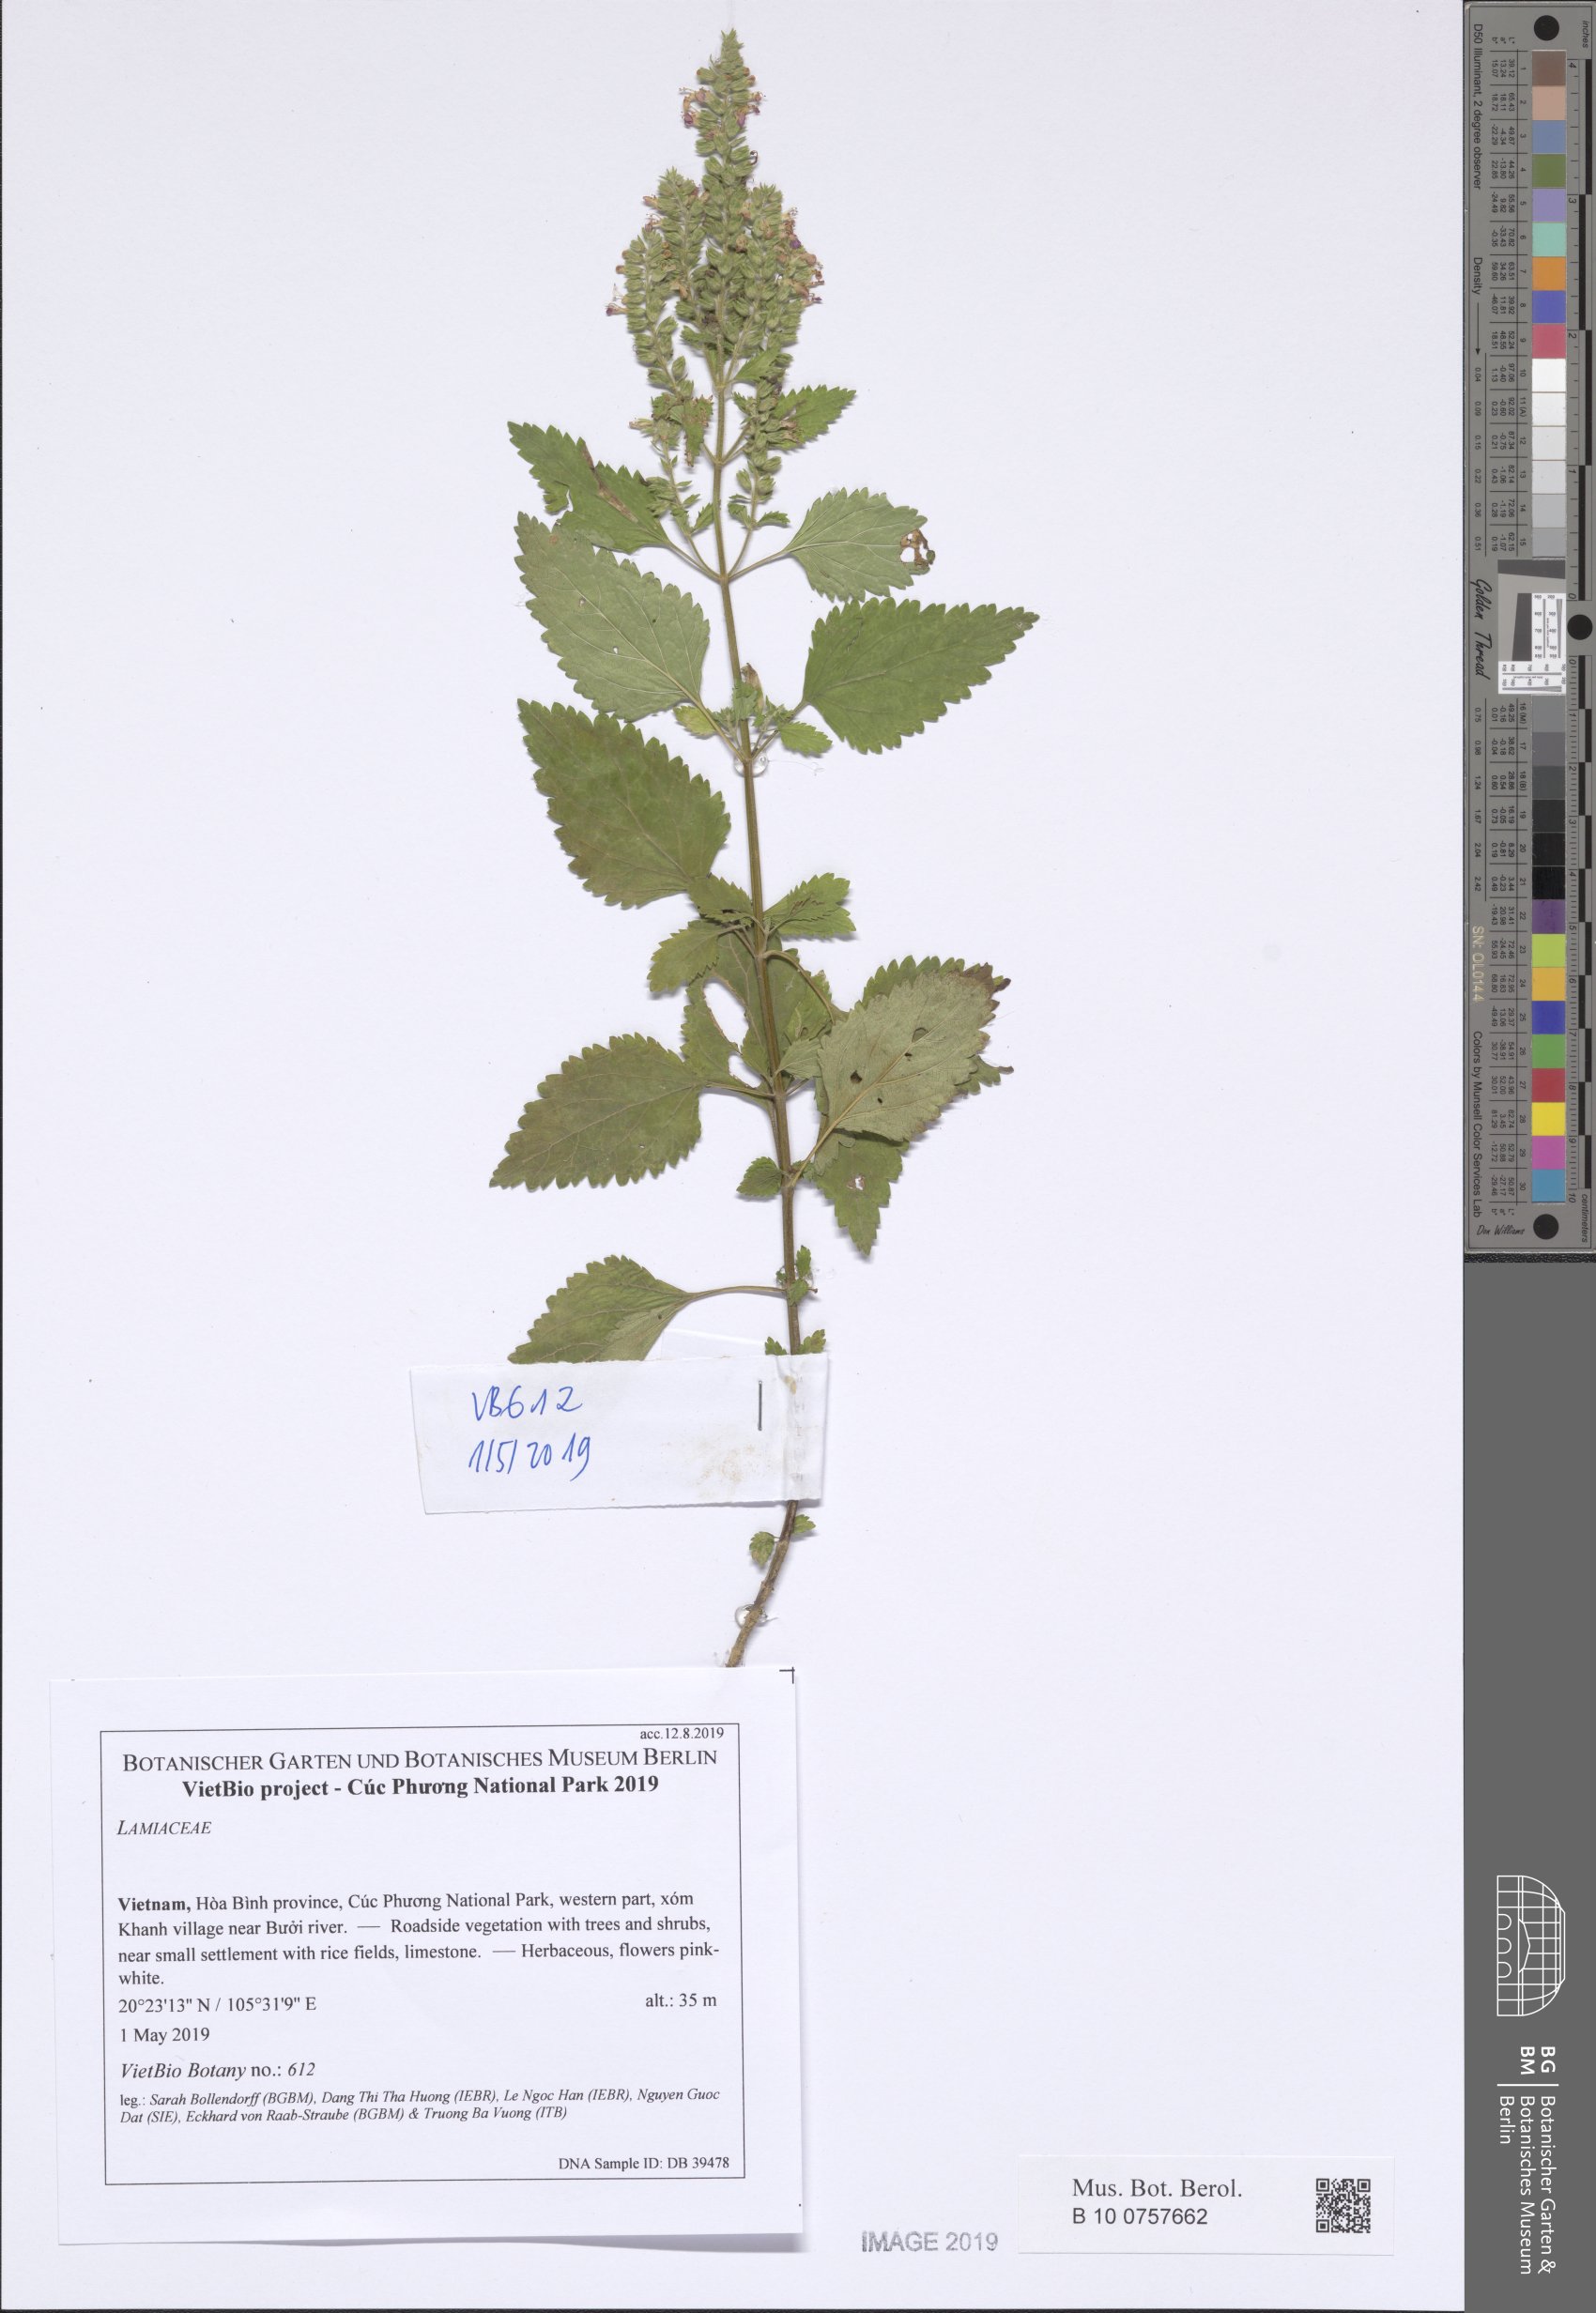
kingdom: Plantae
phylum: Tracheophyta
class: Magnoliopsida
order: Lamiales
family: Lamiaceae
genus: Teucrium
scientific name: Teucrium viscidum
